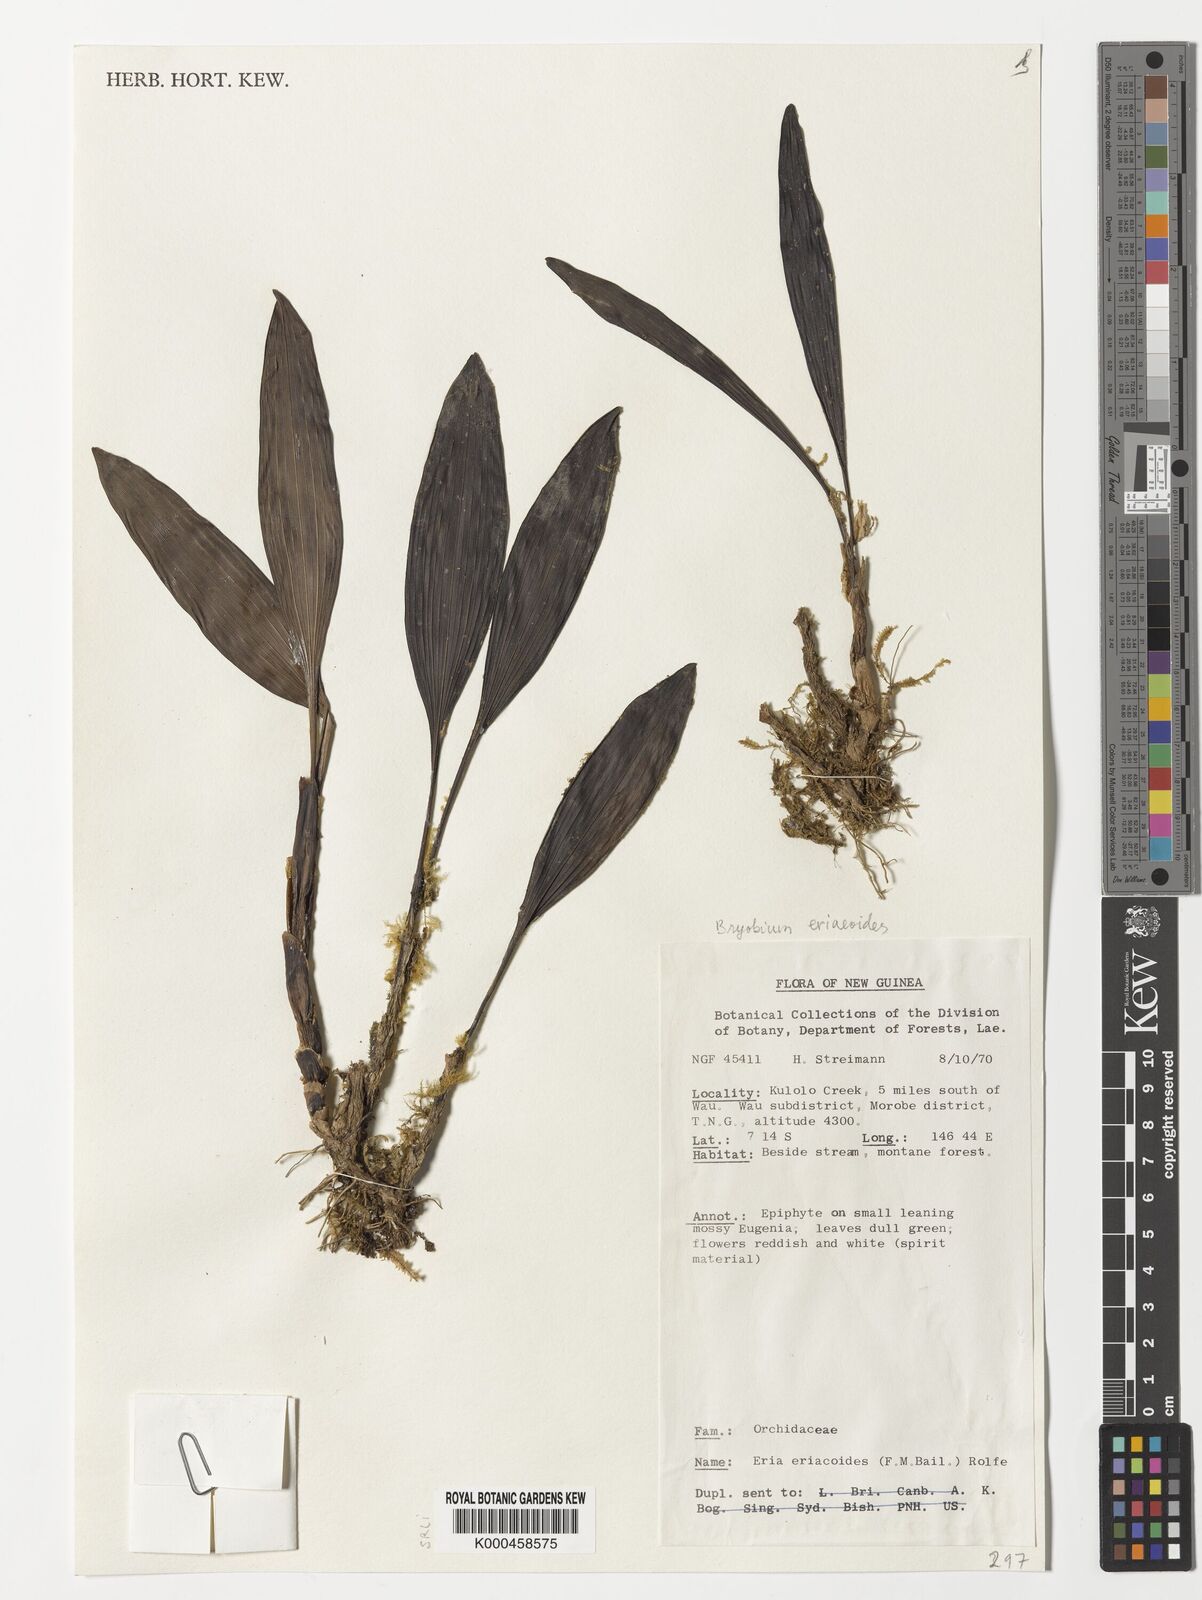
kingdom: Plantae
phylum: Tracheophyta
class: Liliopsida
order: Asparagales
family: Orchidaceae
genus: Bryobium
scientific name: Bryobium eriaeoides
